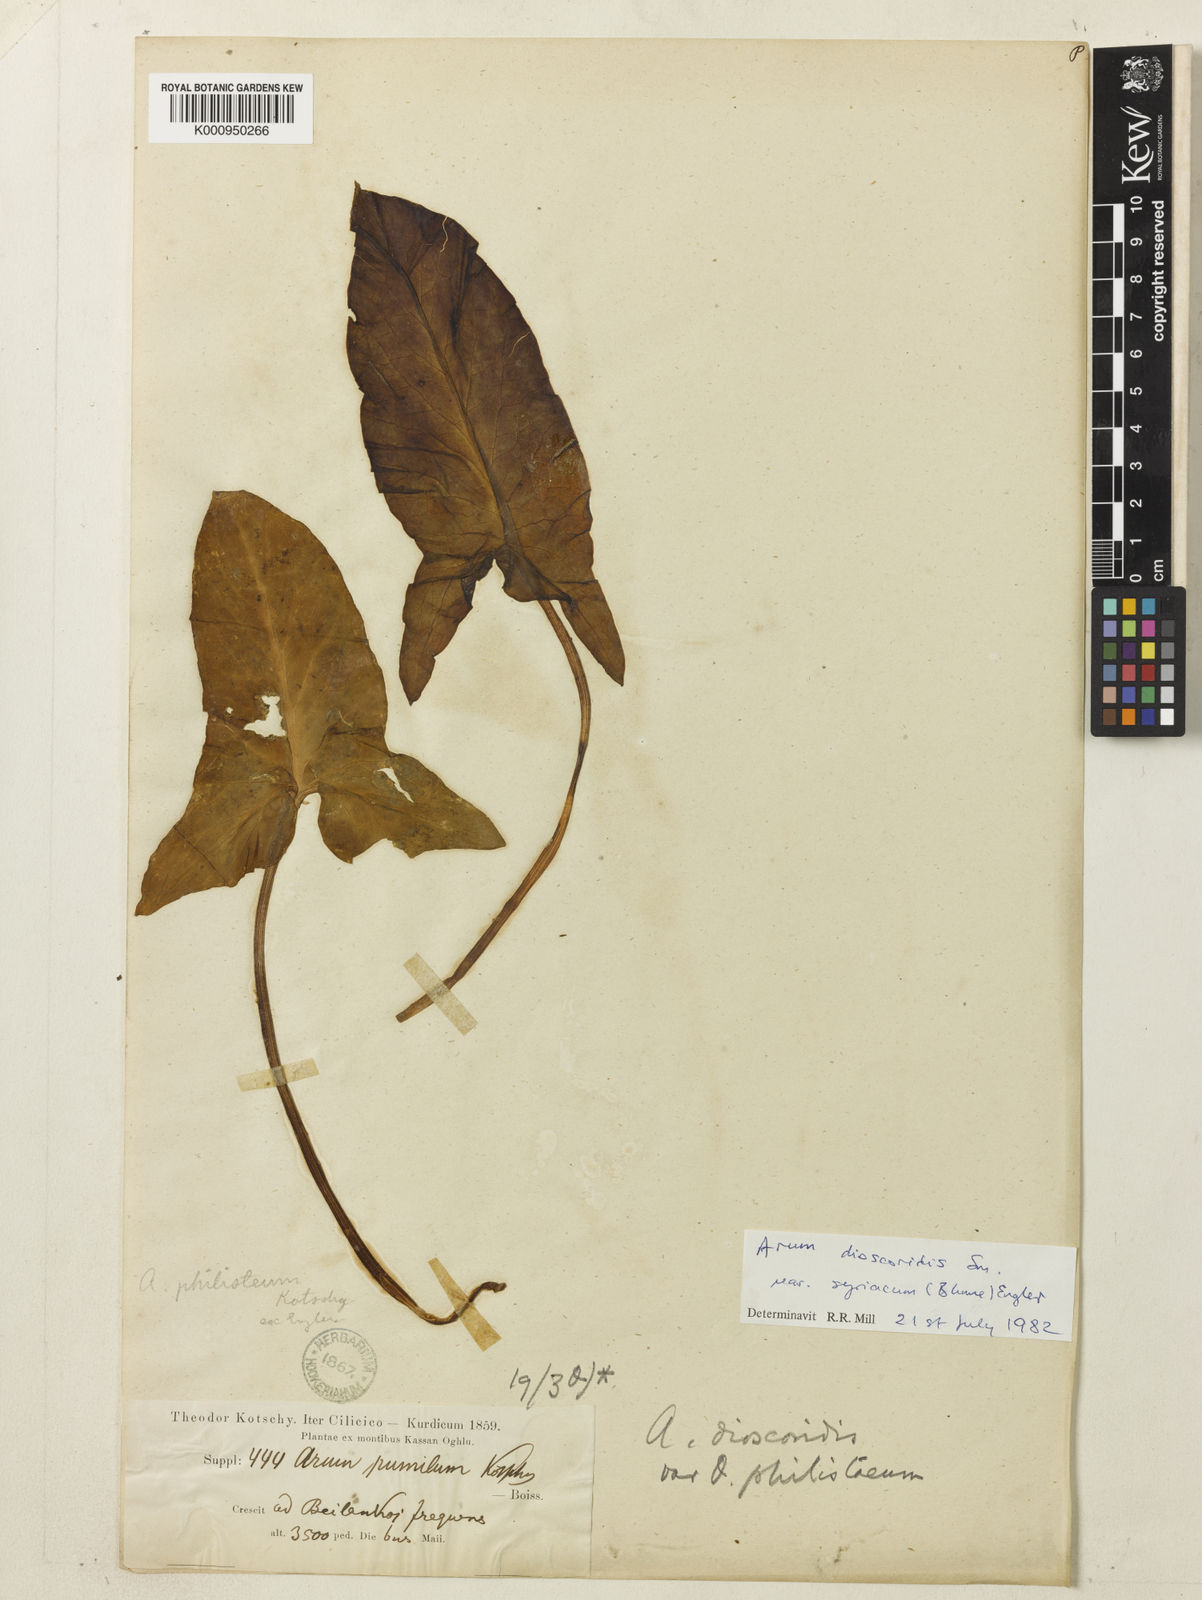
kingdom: Plantae
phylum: Tracheophyta
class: Liliopsida
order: Alismatales
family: Araceae
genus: Arum
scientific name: Arum dioscoridis
